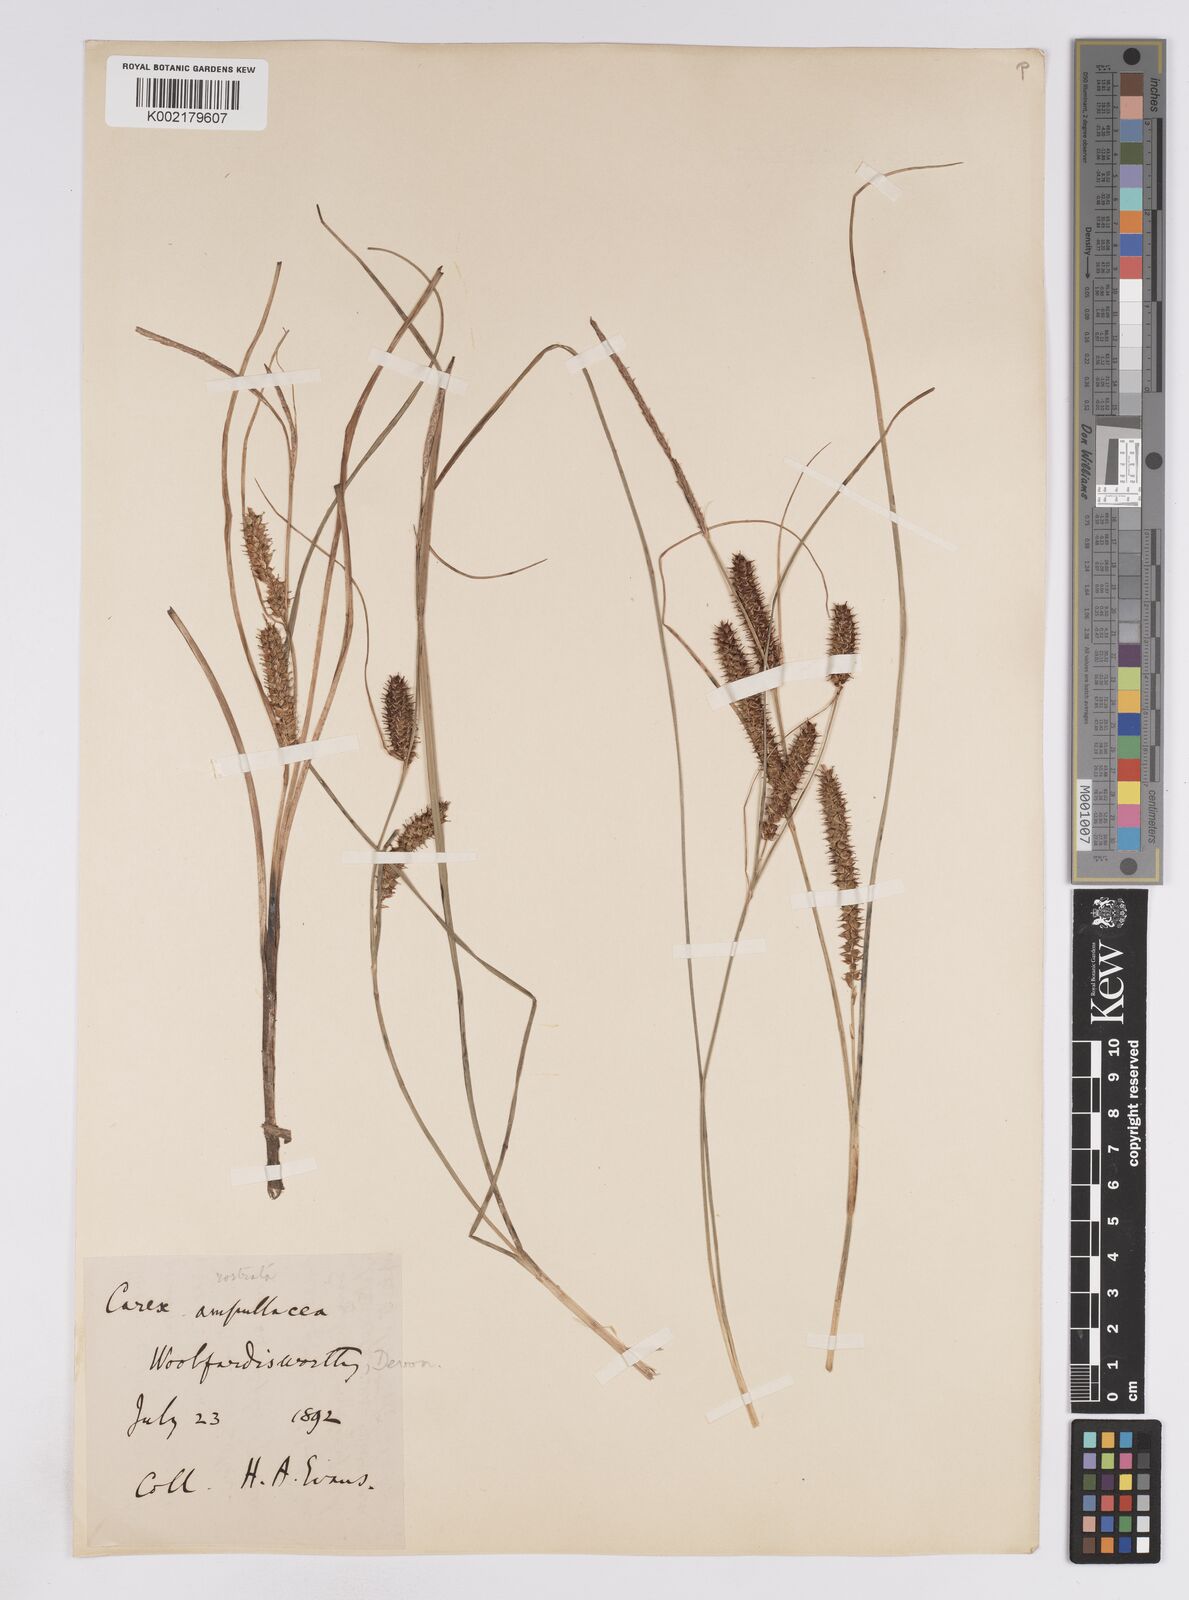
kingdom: Plantae
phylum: Tracheophyta
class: Liliopsida
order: Poales
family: Cyperaceae
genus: Carex
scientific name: Carex rostrata
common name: Bottle sedge
